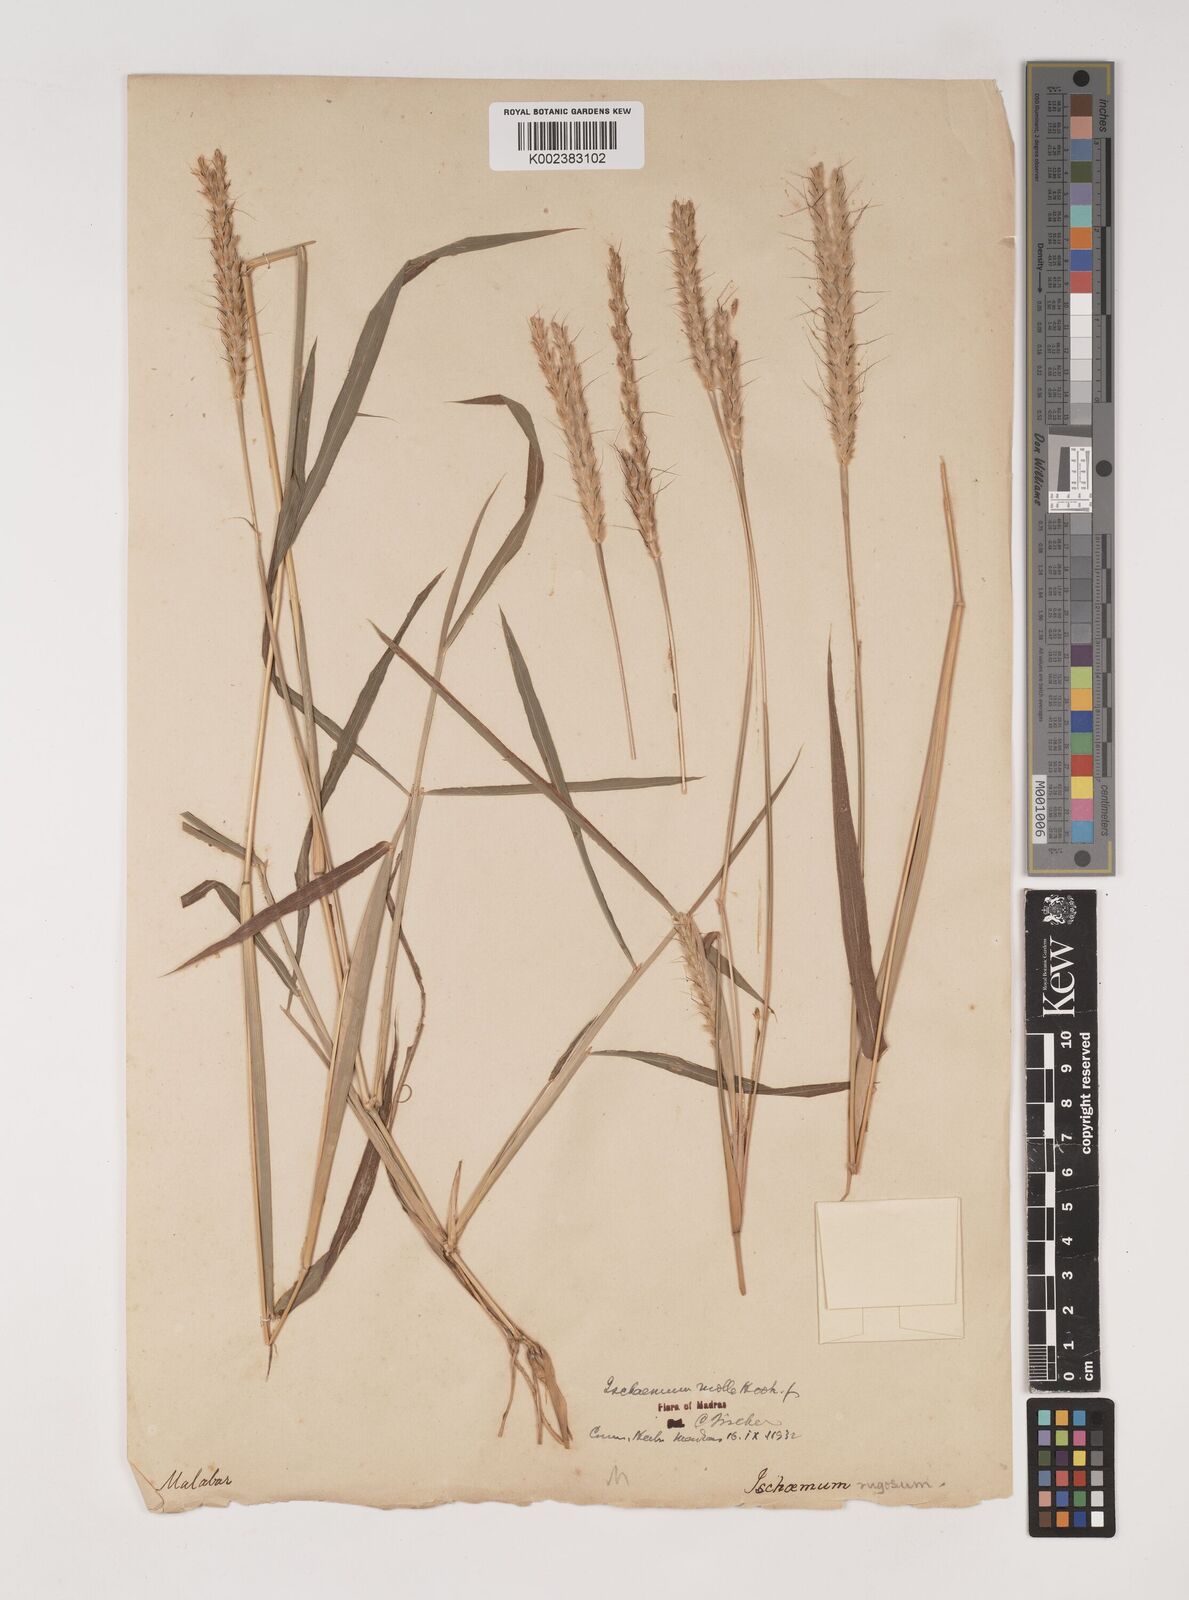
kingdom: Plantae
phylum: Tracheophyta
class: Liliopsida
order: Poales
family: Poaceae
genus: Ischaemum
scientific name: Ischaemum molle
